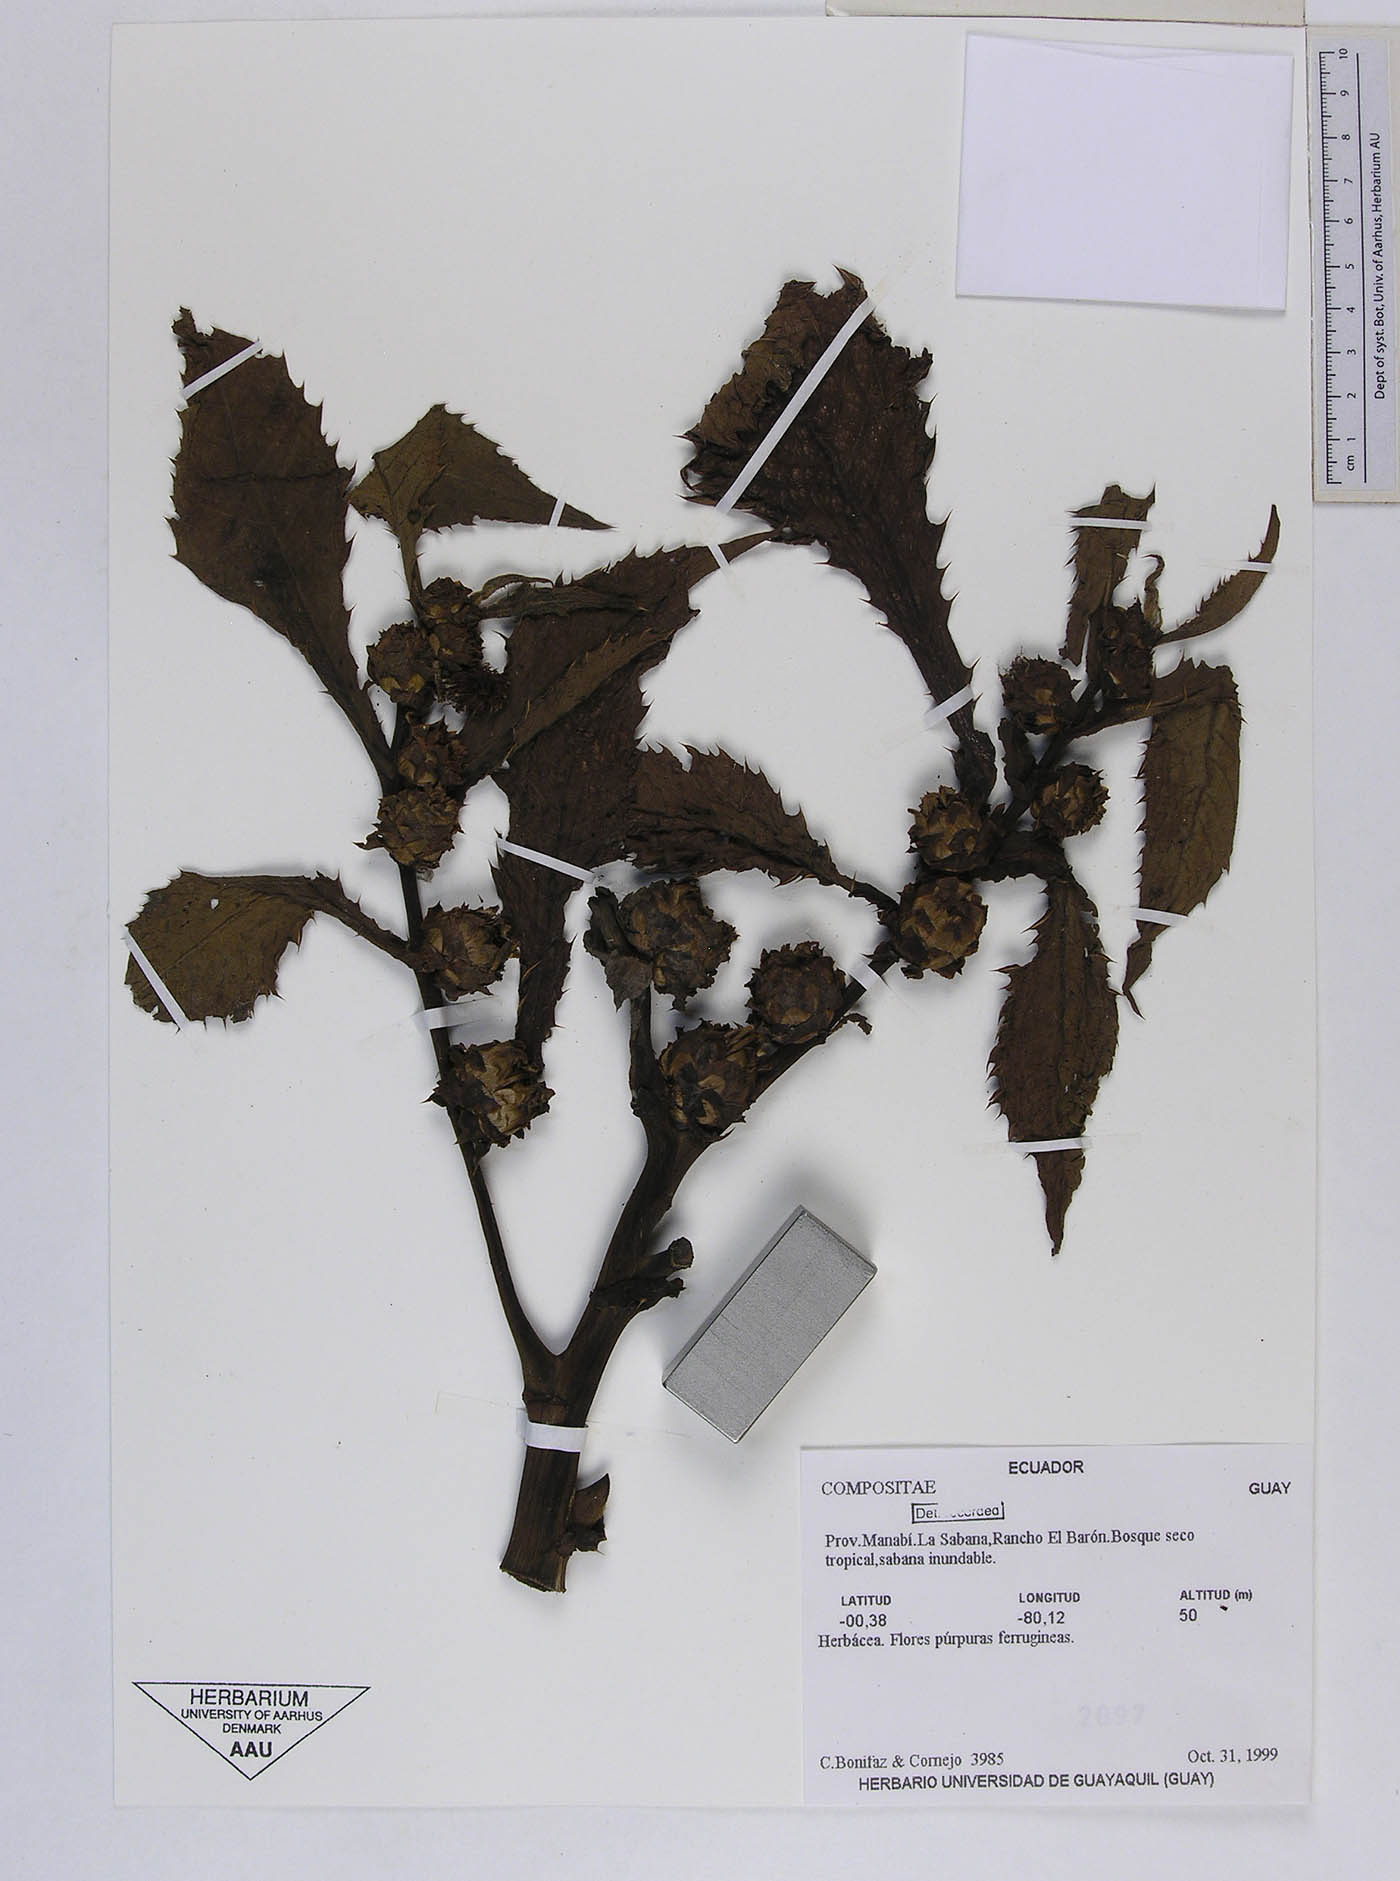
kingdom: Plantae
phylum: Tracheophyta
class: Magnoliopsida
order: Asterales
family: Asteraceae
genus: Pacourina
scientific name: Pacourina edulis
